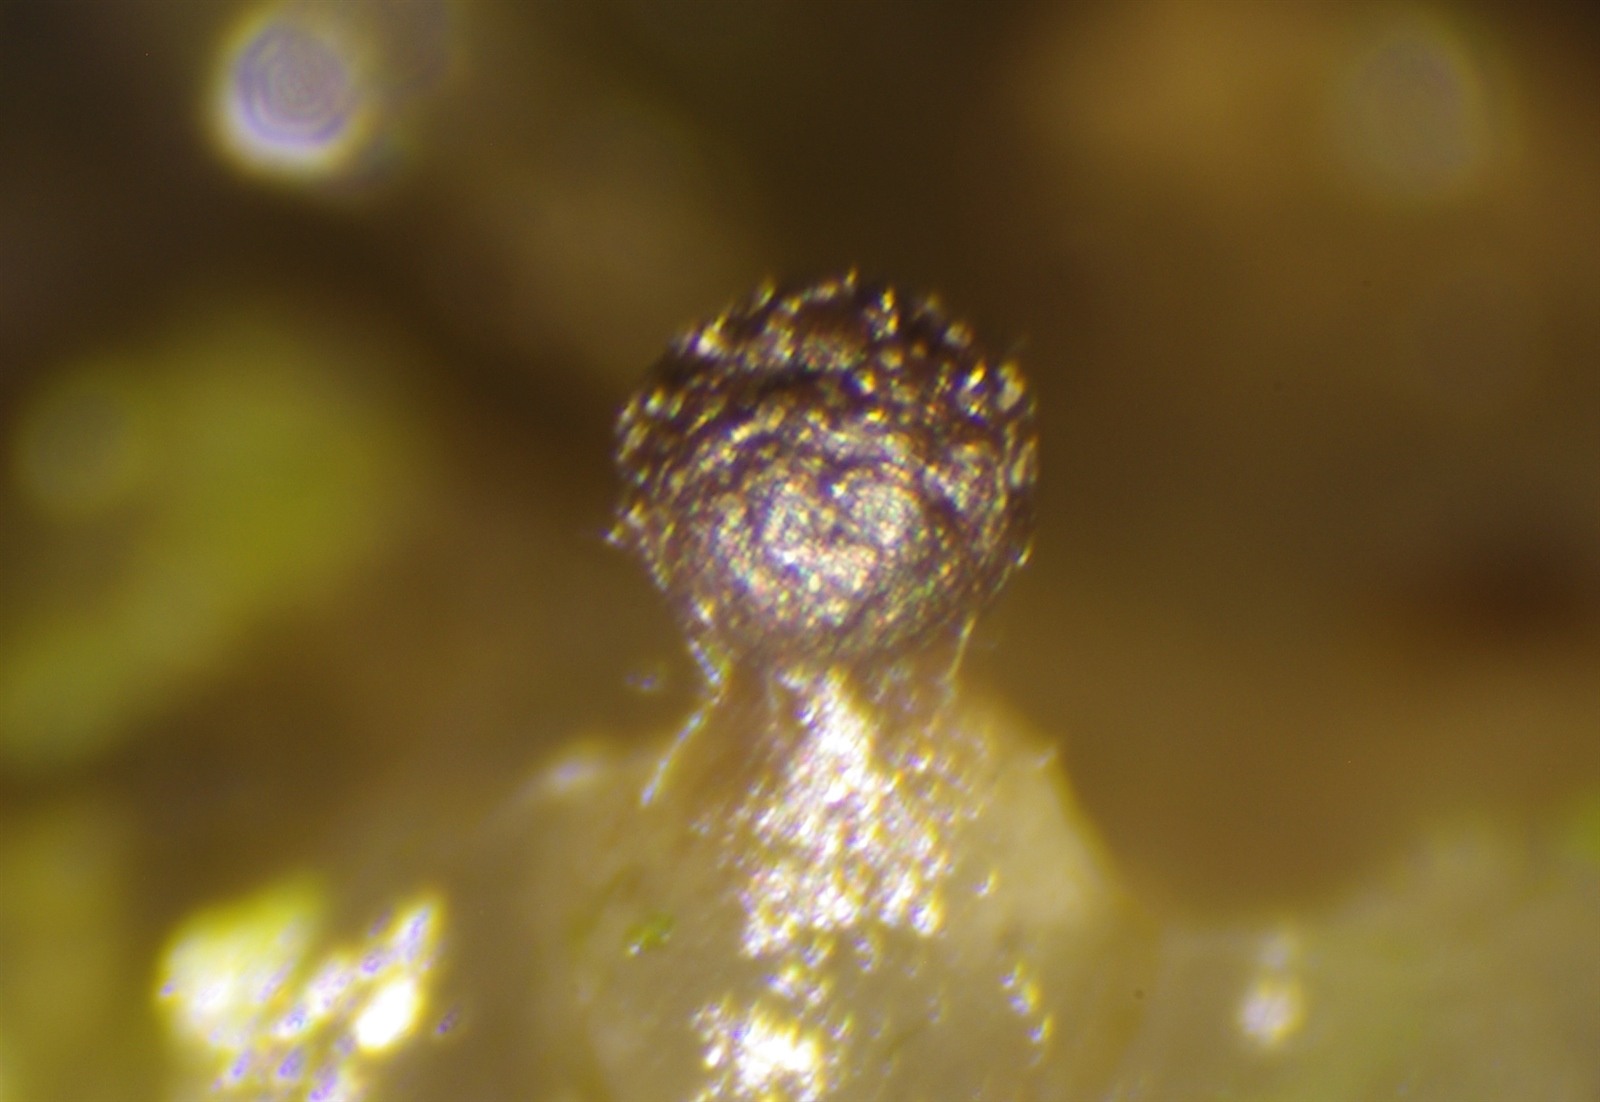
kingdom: Protozoa
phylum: Mycetozoa
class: Myxomycetes
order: Physarales
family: Didymiaceae
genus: Lepidoderma
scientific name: Lepidoderma tigrinum
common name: Lepidoderma crassipes
